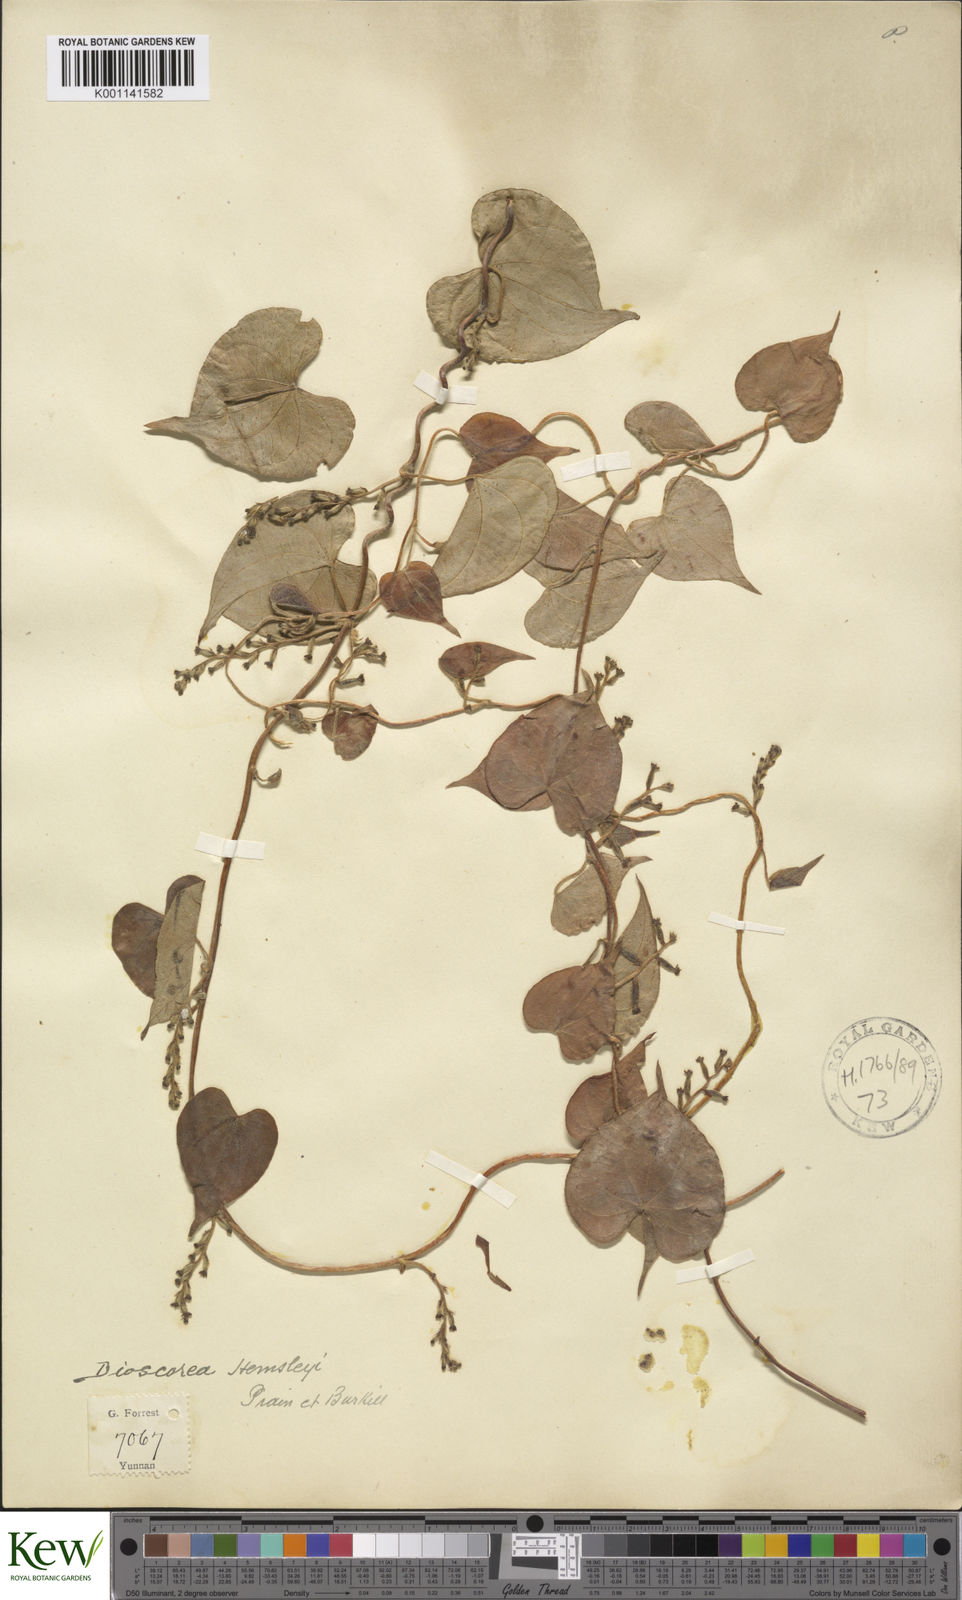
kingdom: Plantae
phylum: Tracheophyta
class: Liliopsida
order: Dioscoreales
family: Dioscoreaceae
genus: Dioscorea
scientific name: Dioscorea hemsleyi
